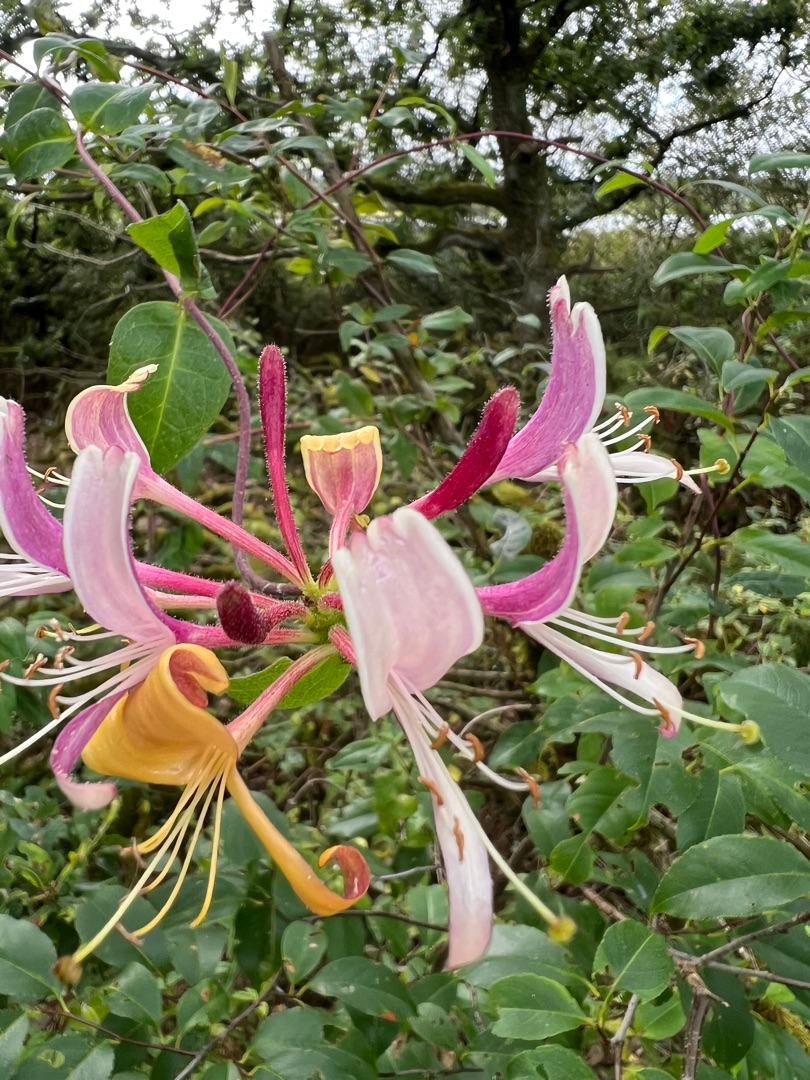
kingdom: Plantae
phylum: Tracheophyta
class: Magnoliopsida
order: Dipsacales
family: Caprifoliaceae
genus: Lonicera
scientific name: Lonicera periclymenum
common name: Almindelig gedeblad
